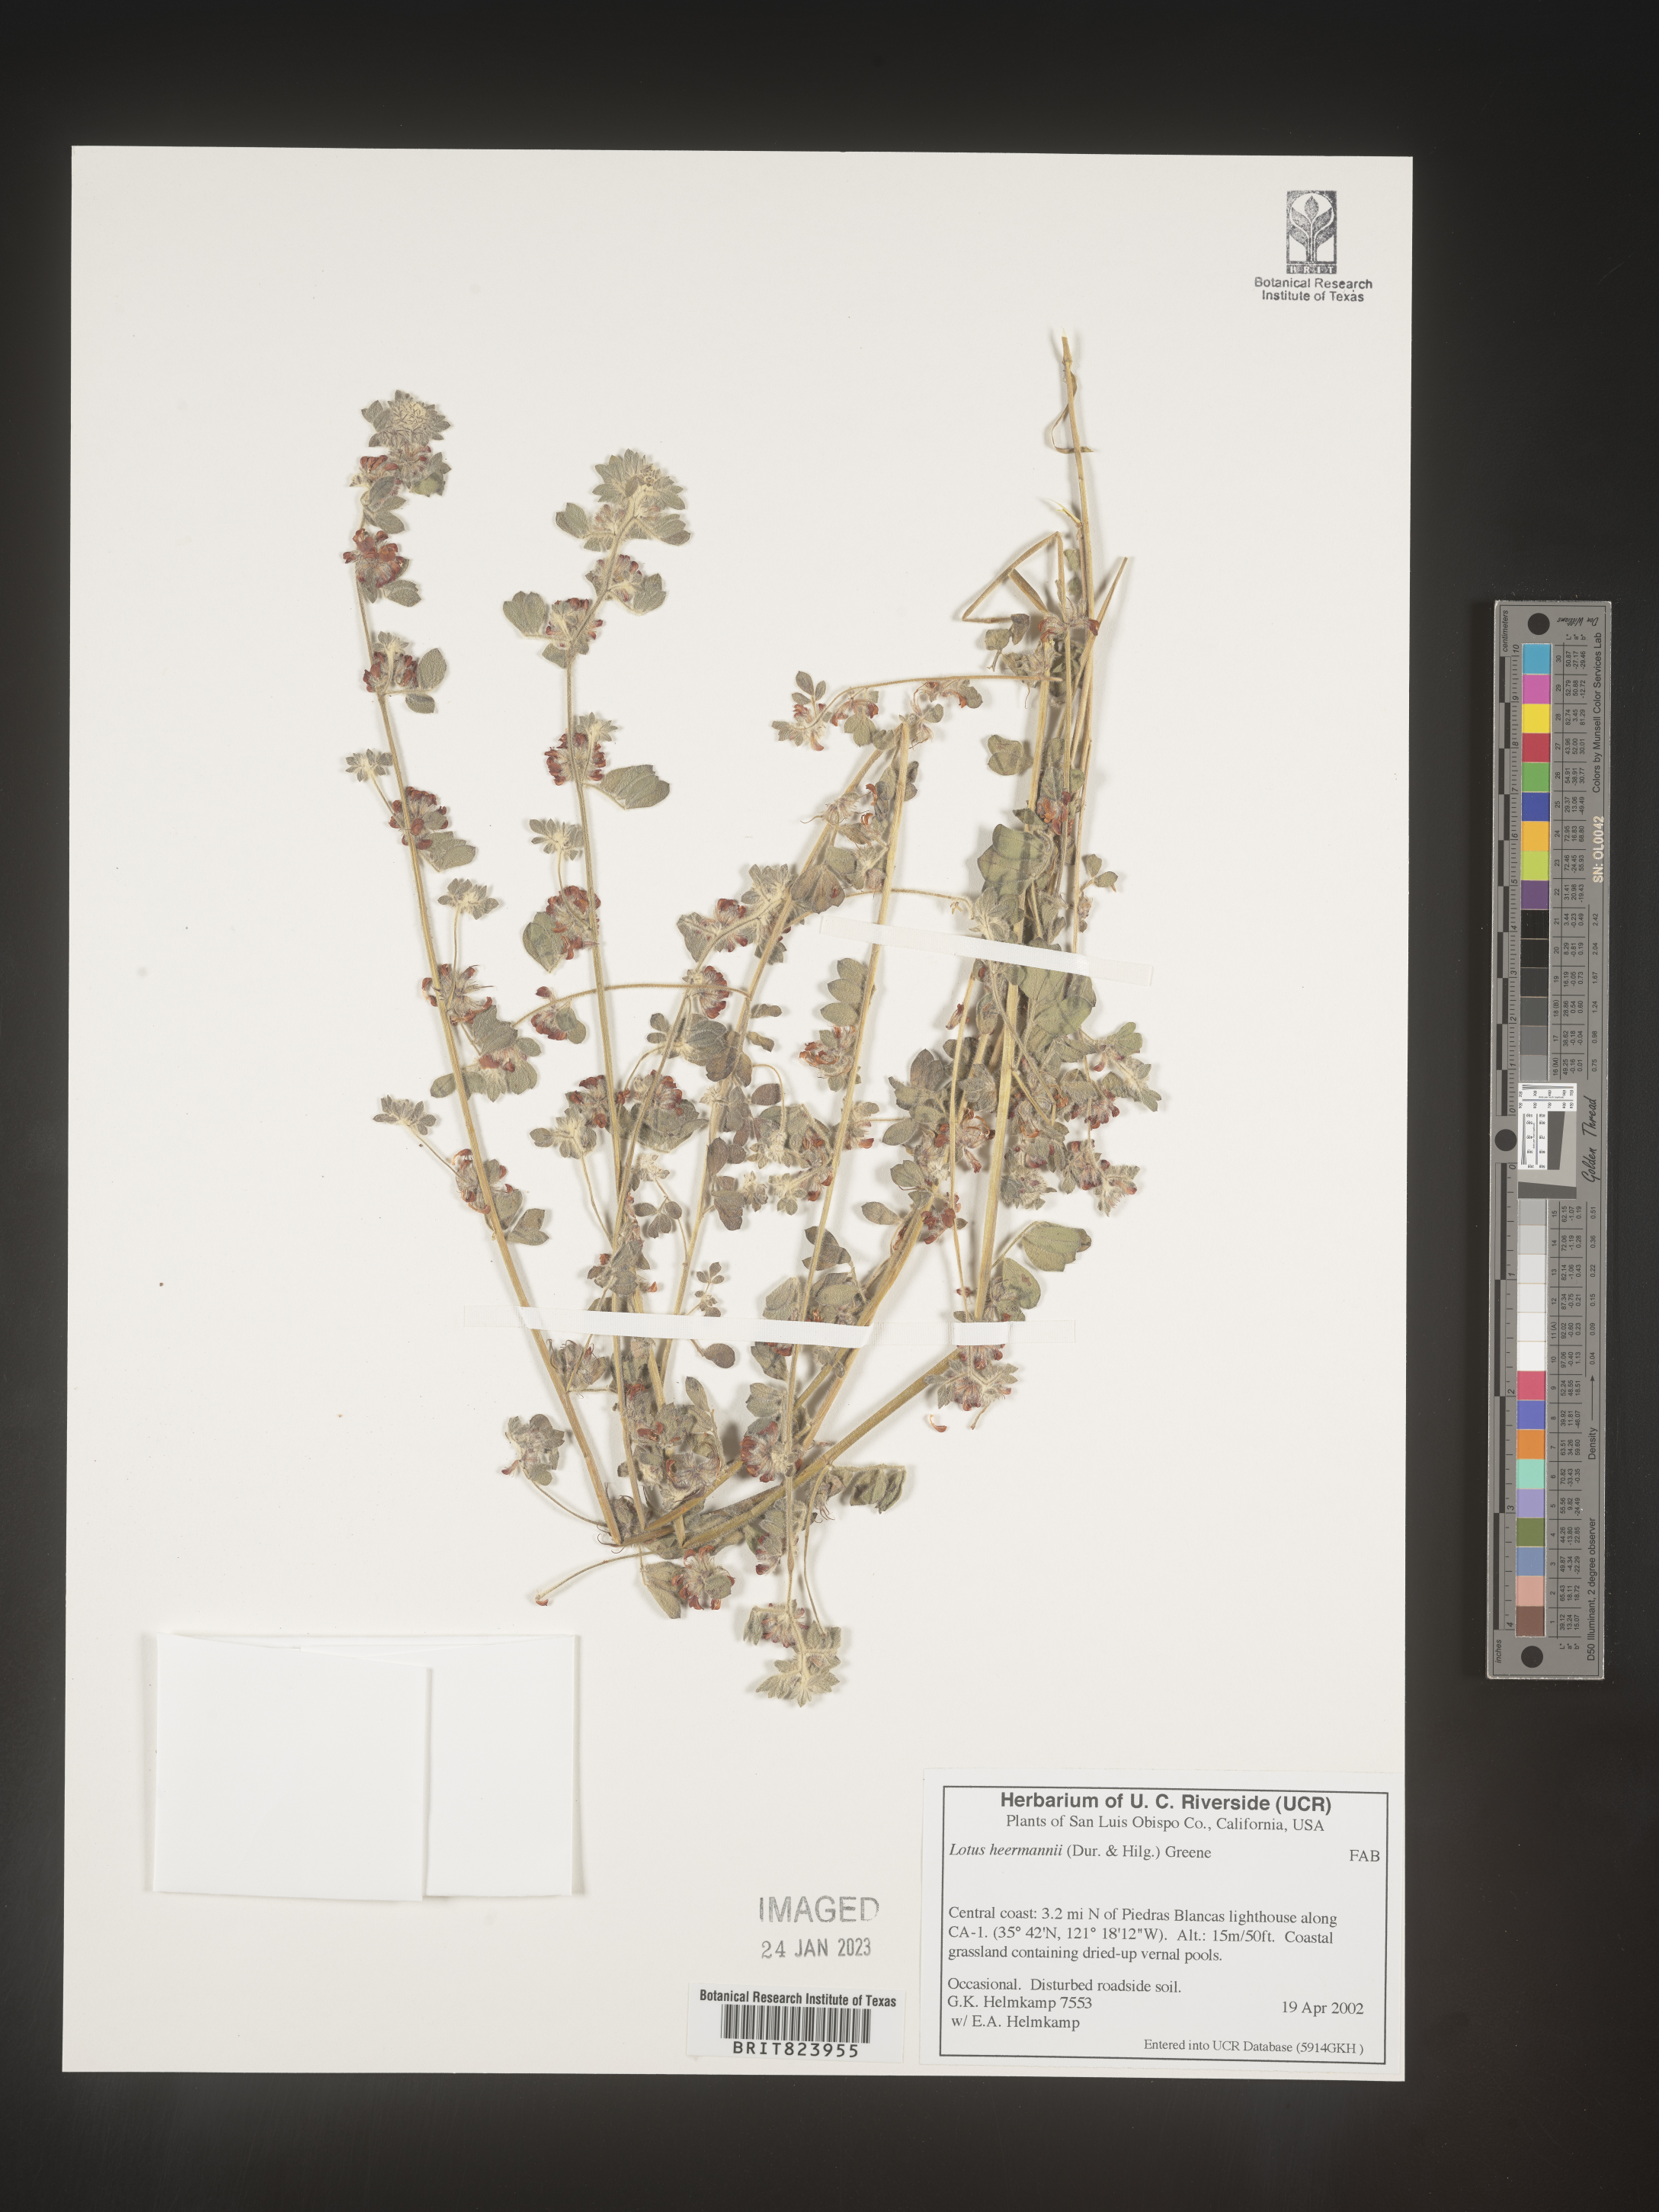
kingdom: Plantae
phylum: Tracheophyta
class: Magnoliopsida
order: Fabales
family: Fabaceae
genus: Lotus
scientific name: Lotus
